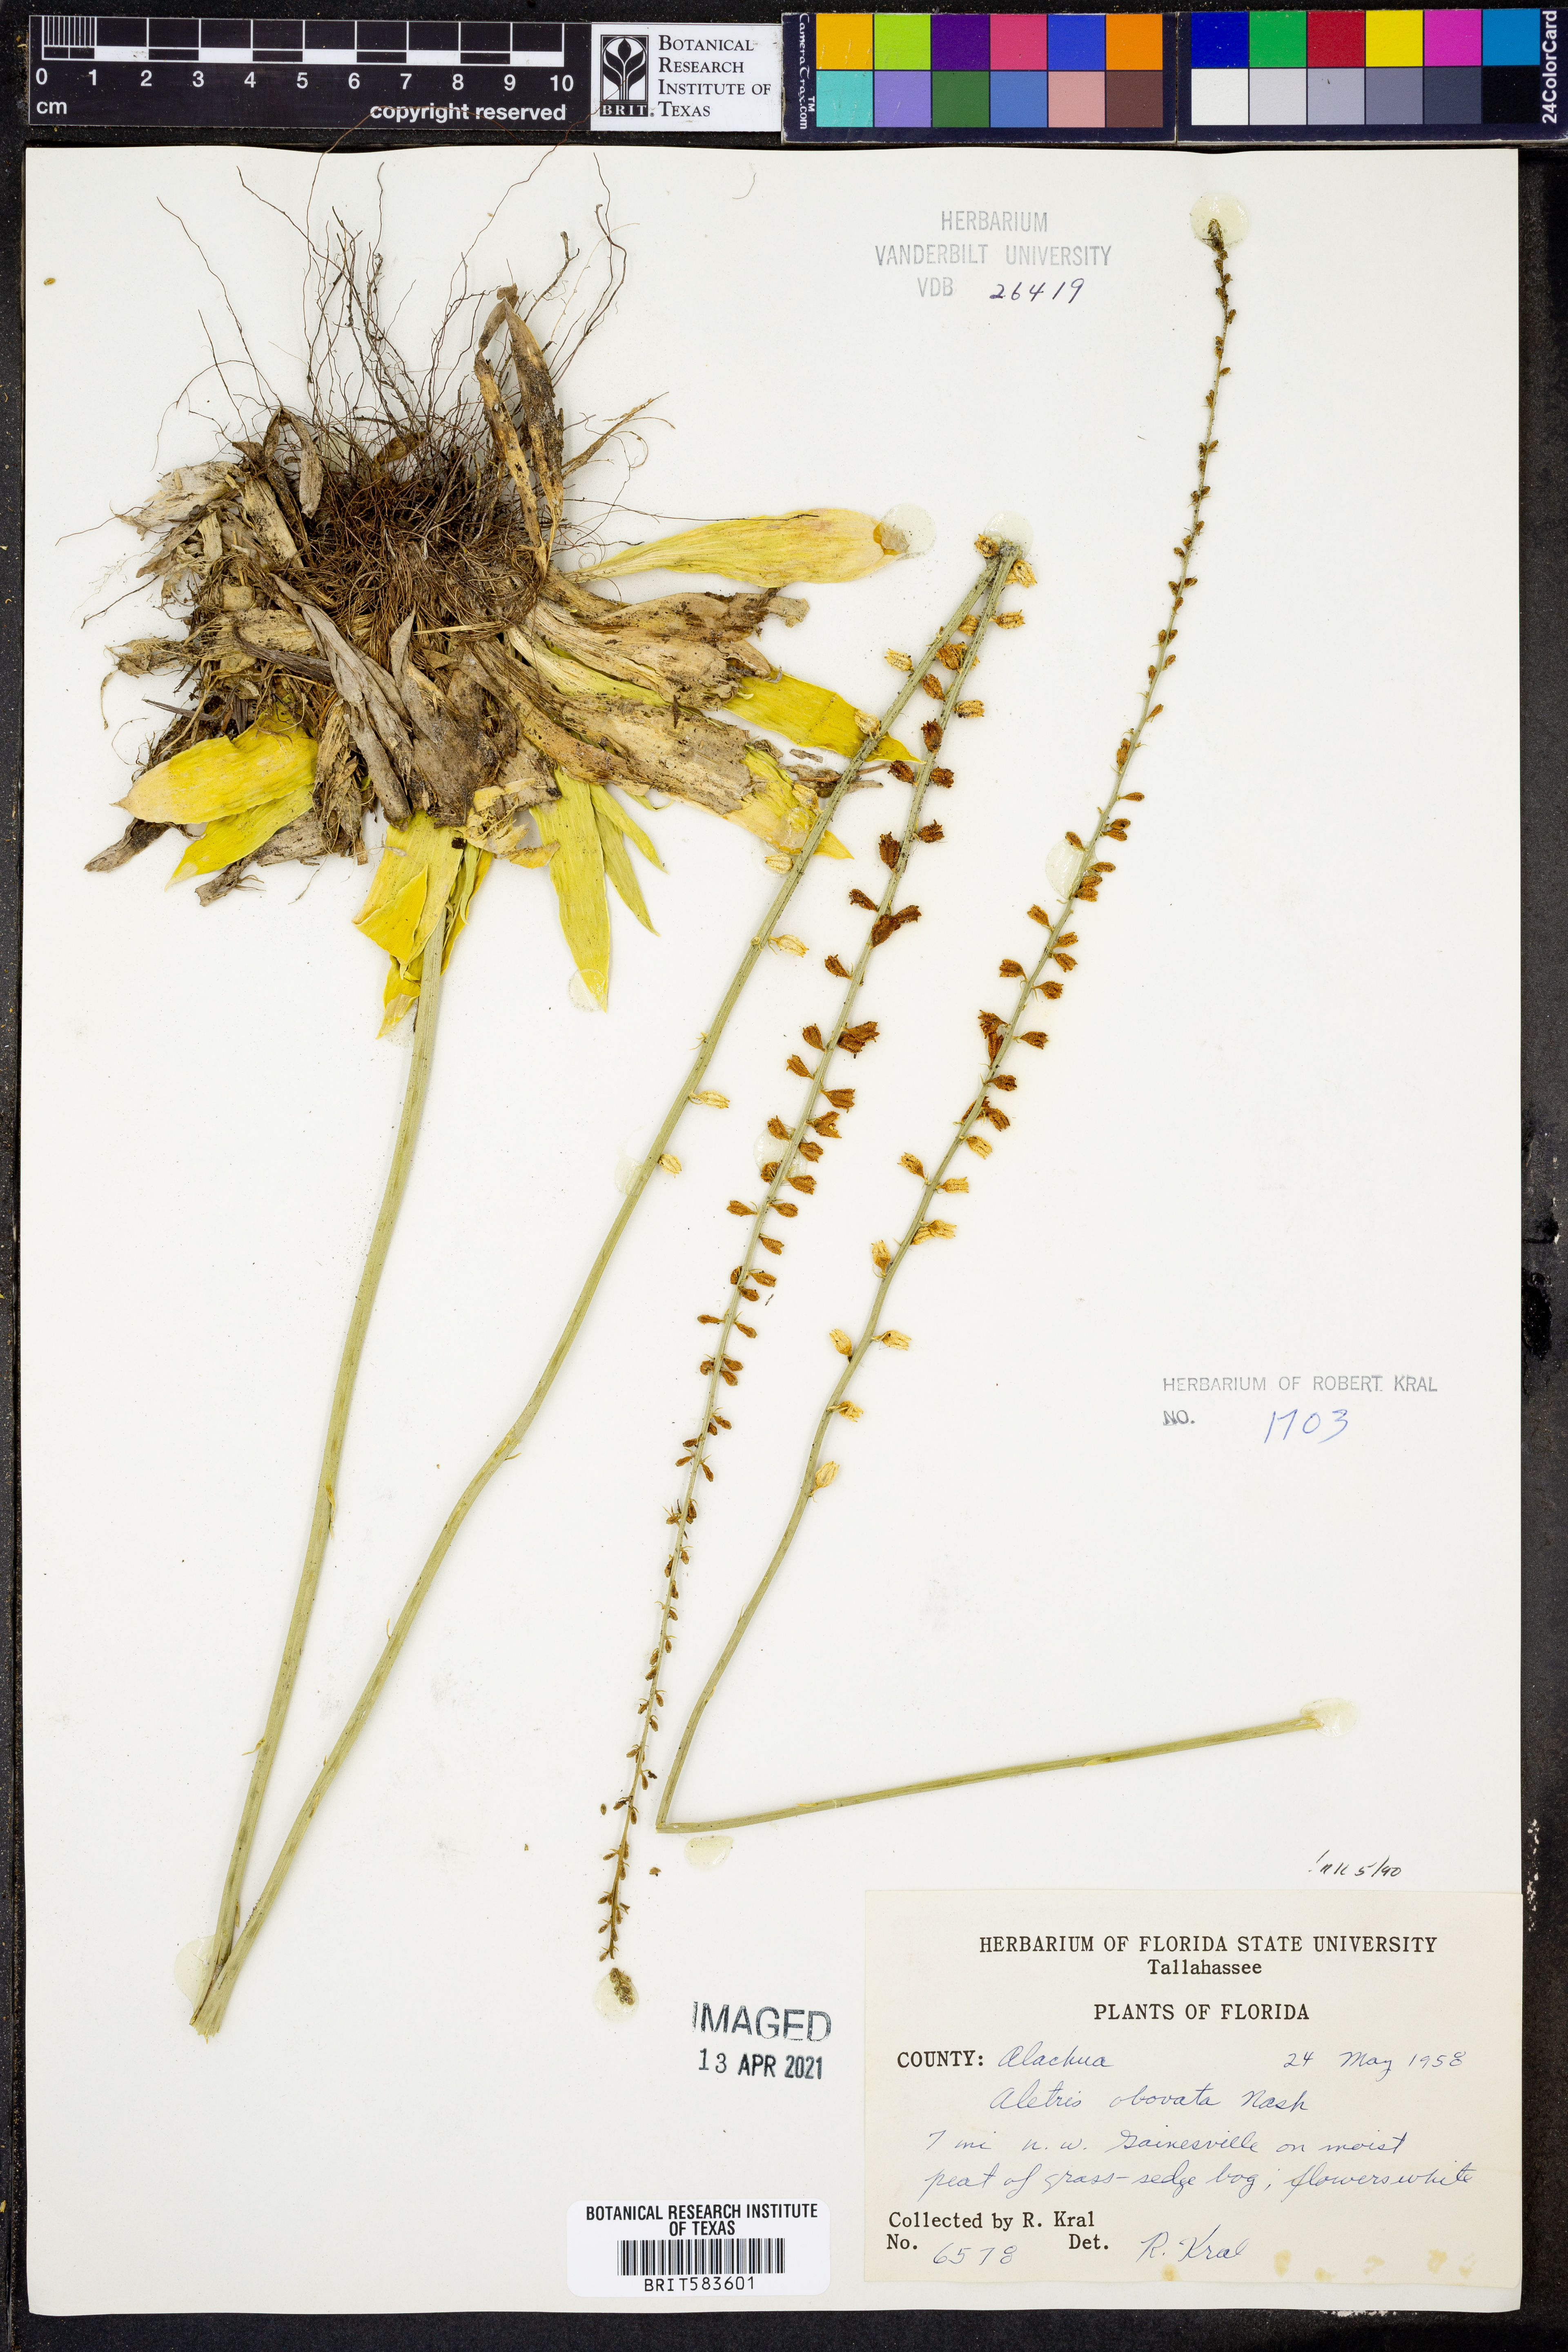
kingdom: Plantae
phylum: Tracheophyta
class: Liliopsida
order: Dioscoreales
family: Nartheciaceae
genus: Aletris
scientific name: Aletris obovata
